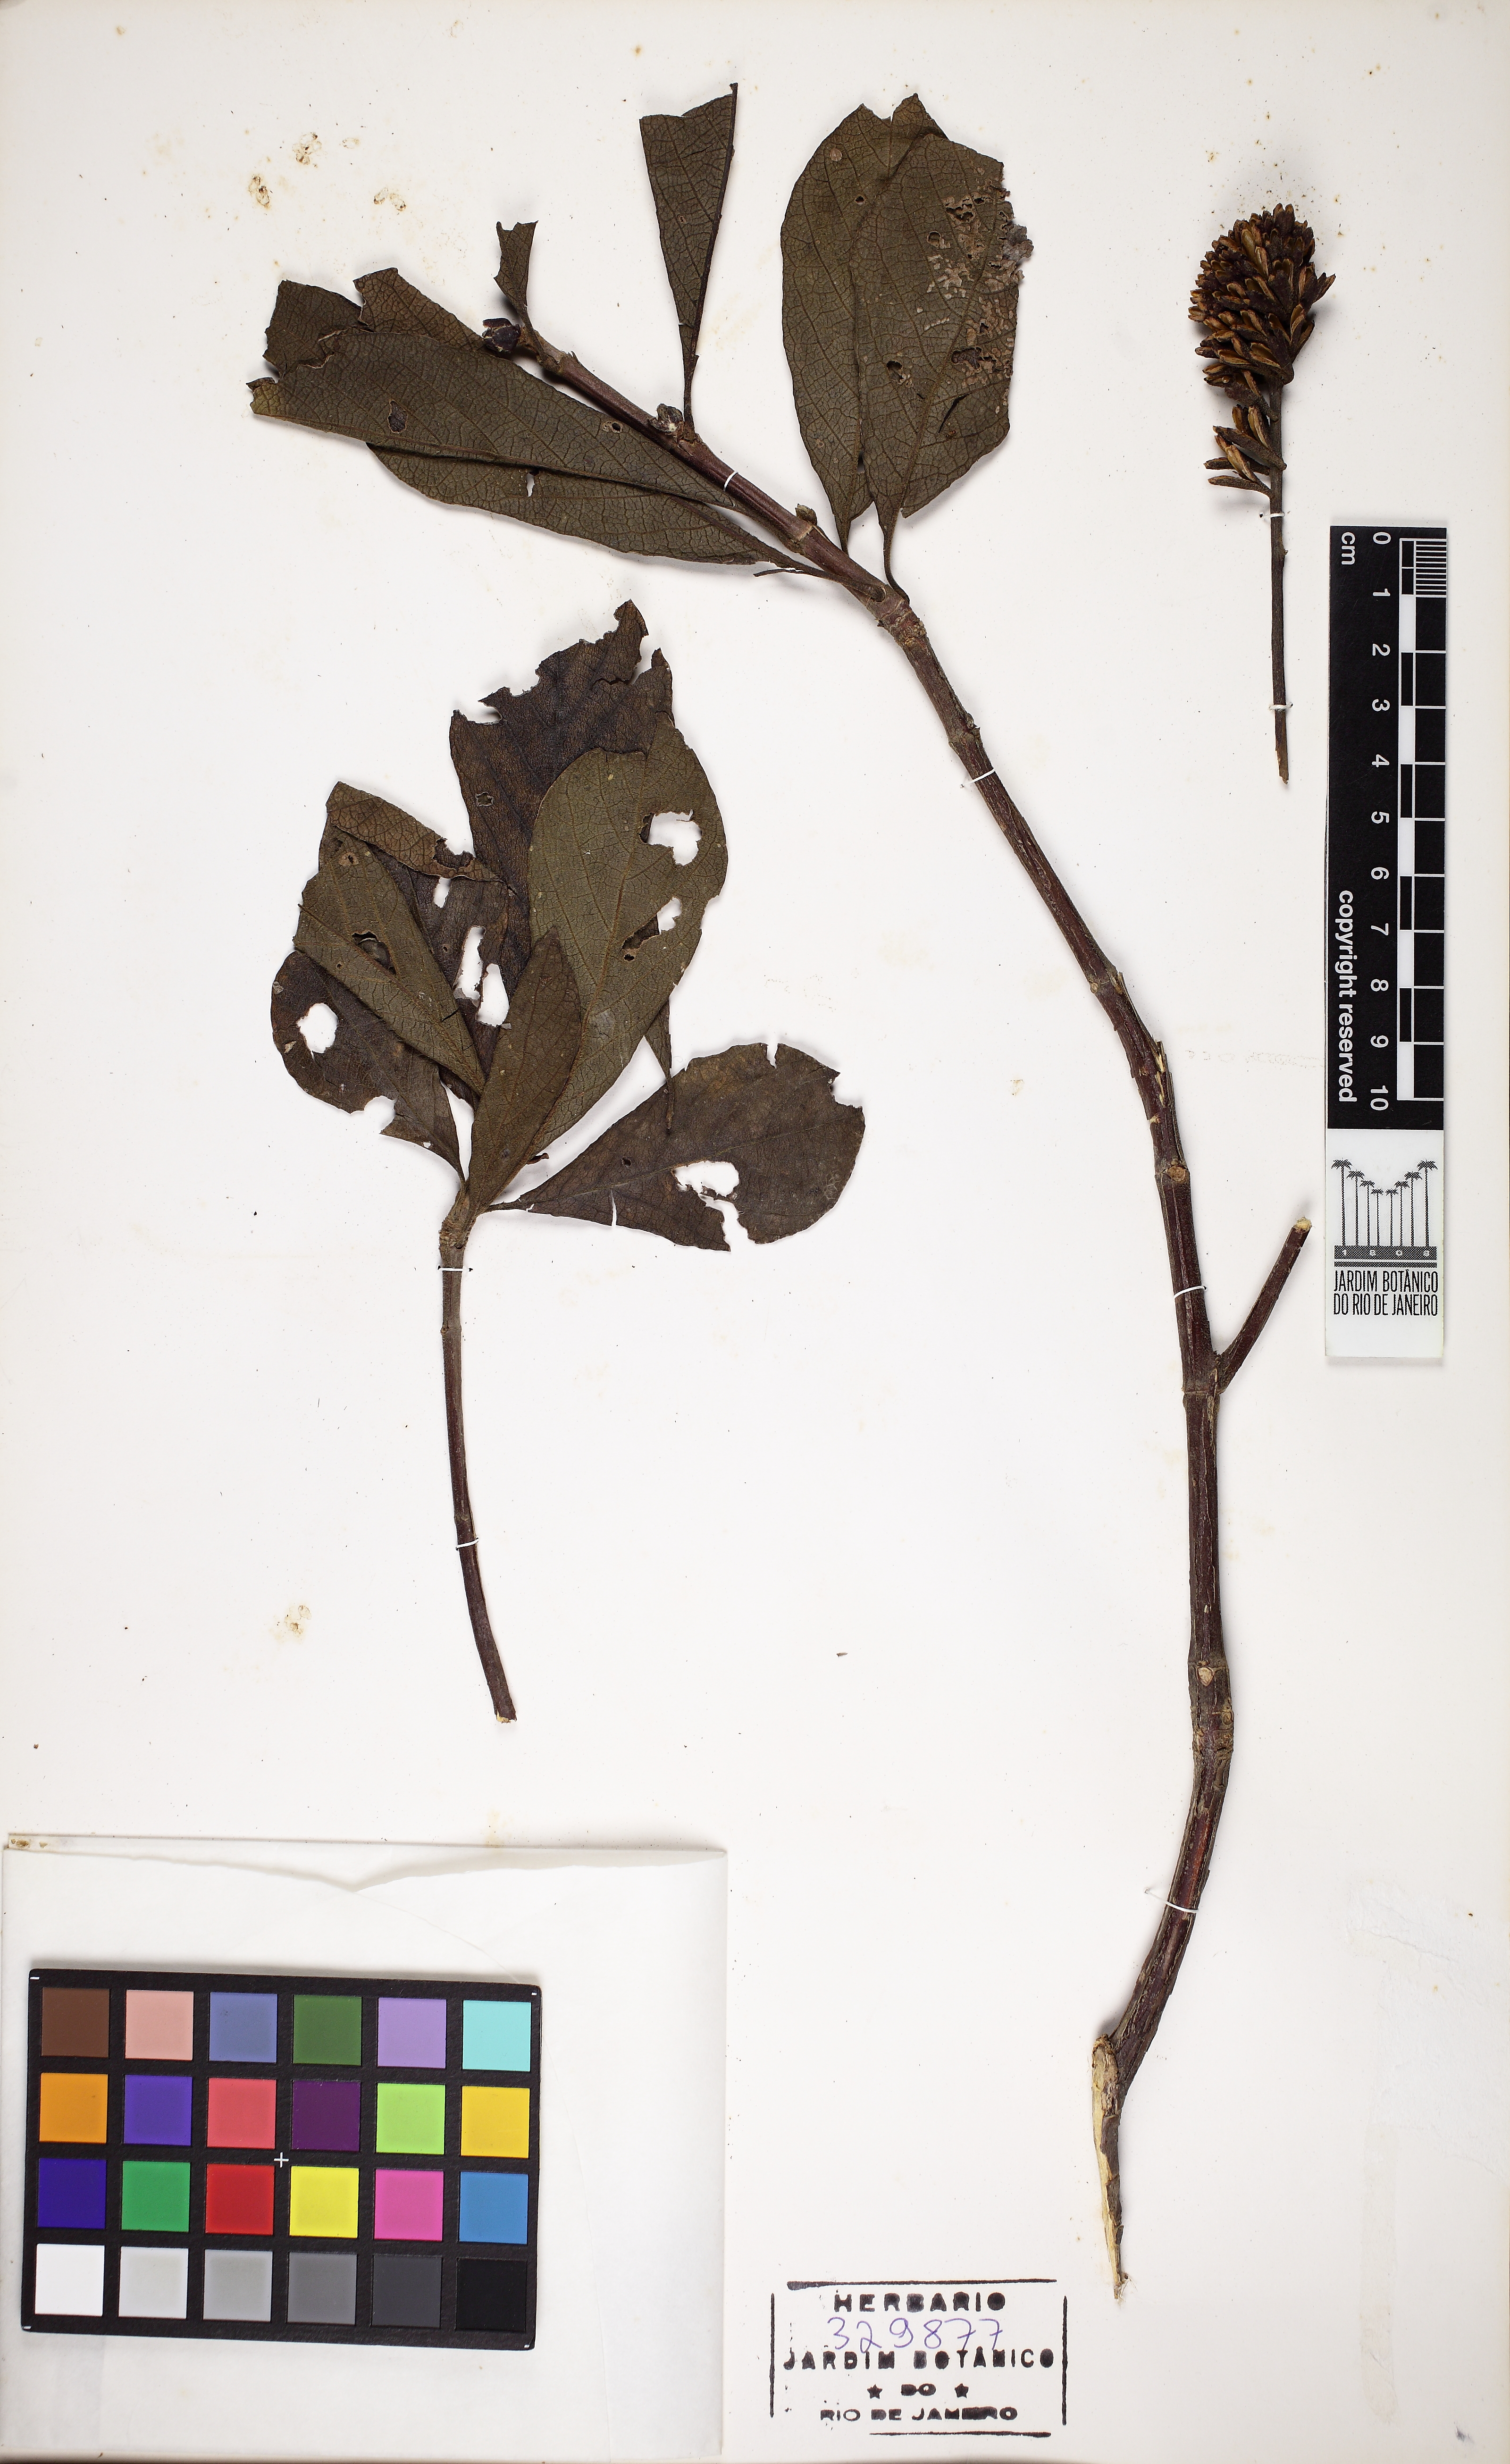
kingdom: Plantae
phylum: Tracheophyta
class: Magnoliopsida
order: Gentianales
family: Rubiaceae
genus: Alseis
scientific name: Alseis involuta
